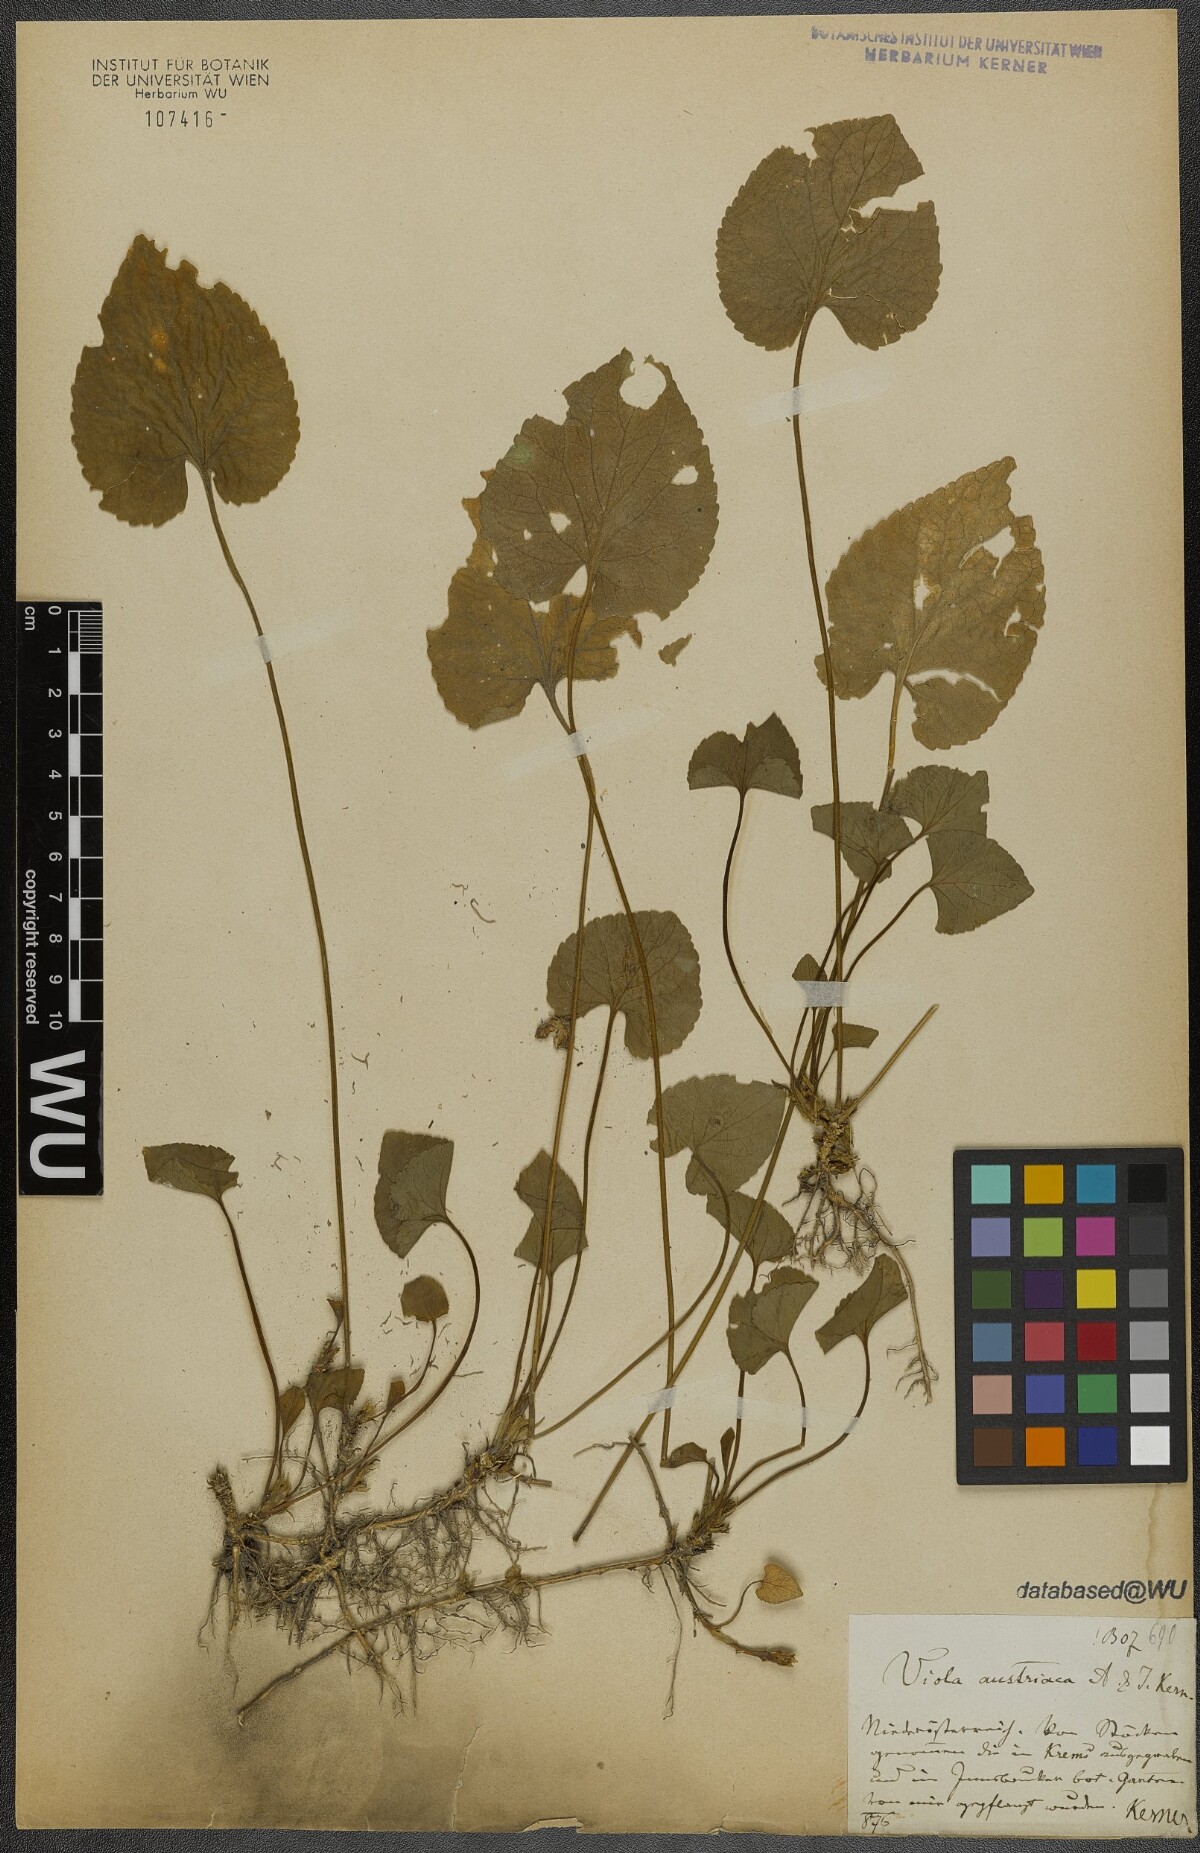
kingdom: Plantae
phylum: Tracheophyta
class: Magnoliopsida
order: Malpighiales
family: Violaceae
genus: Viola
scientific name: Viola suavis
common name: Russian violet
